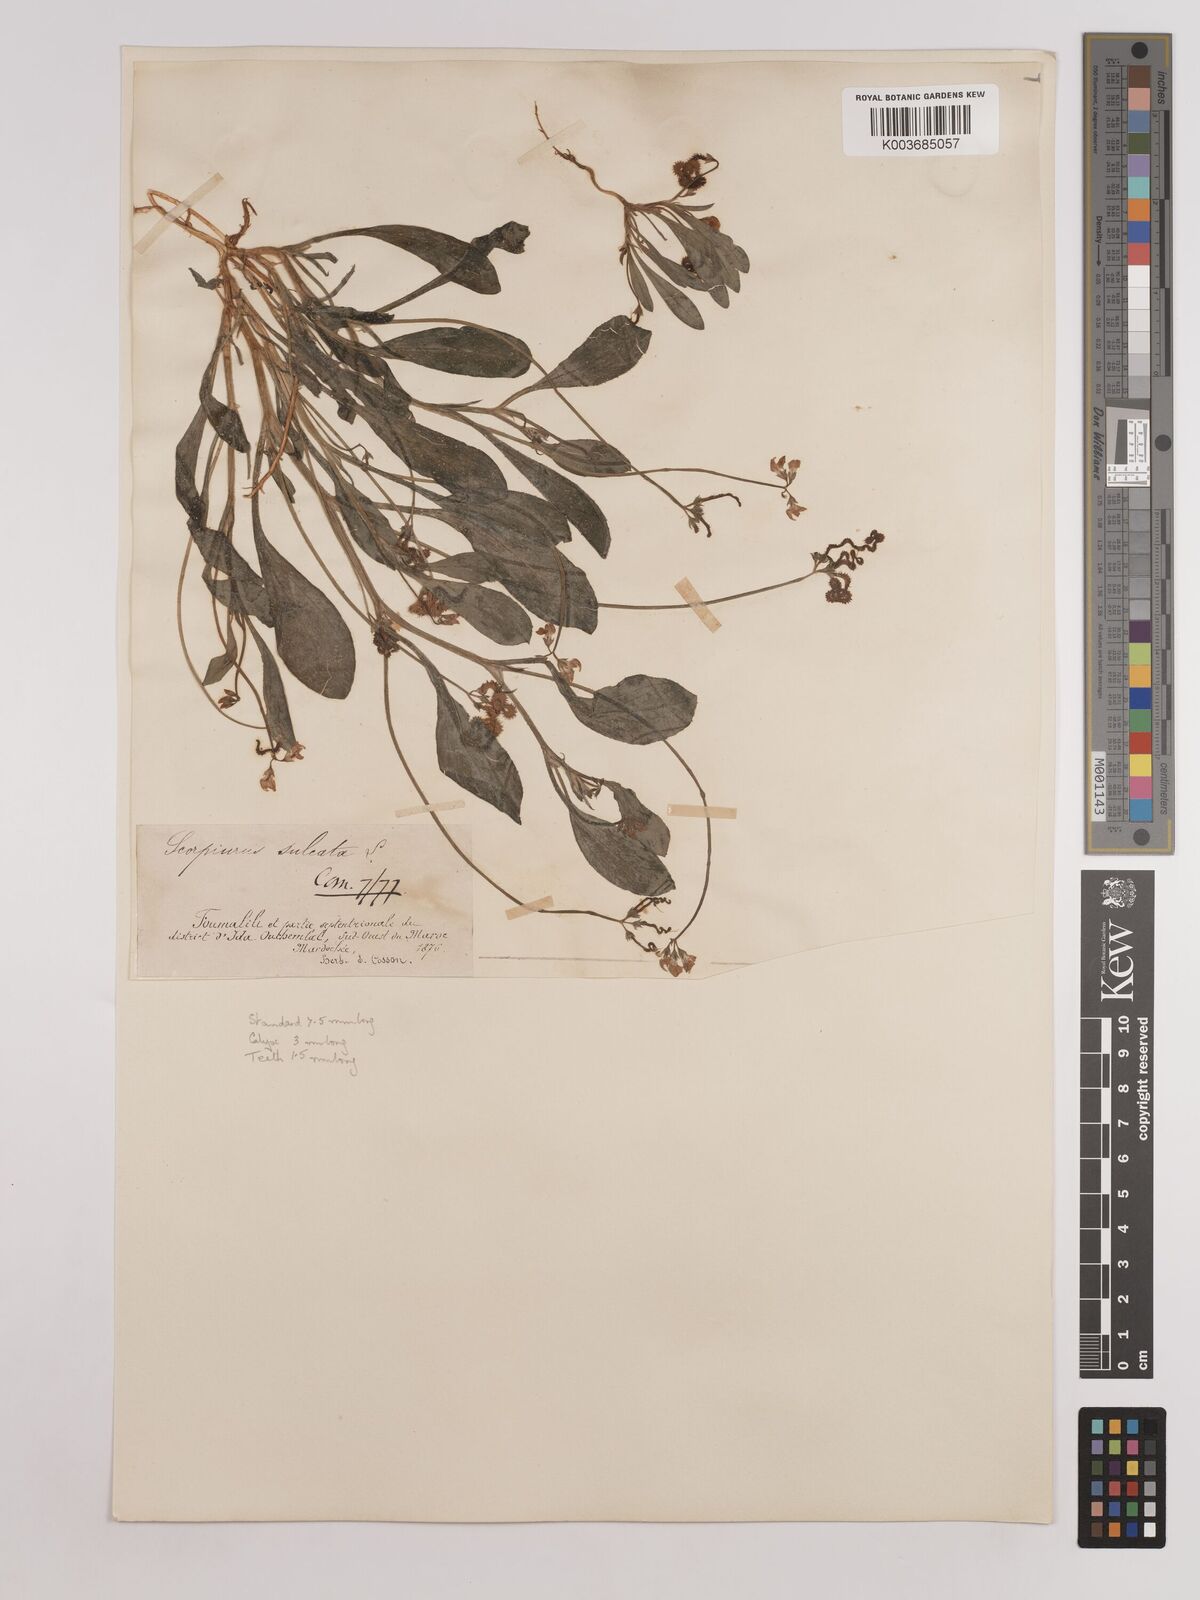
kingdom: Plantae
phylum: Tracheophyta
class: Magnoliopsida
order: Fabales
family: Fabaceae
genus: Scorpiurus
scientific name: Scorpiurus muricatus
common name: Caterpillar-plant
